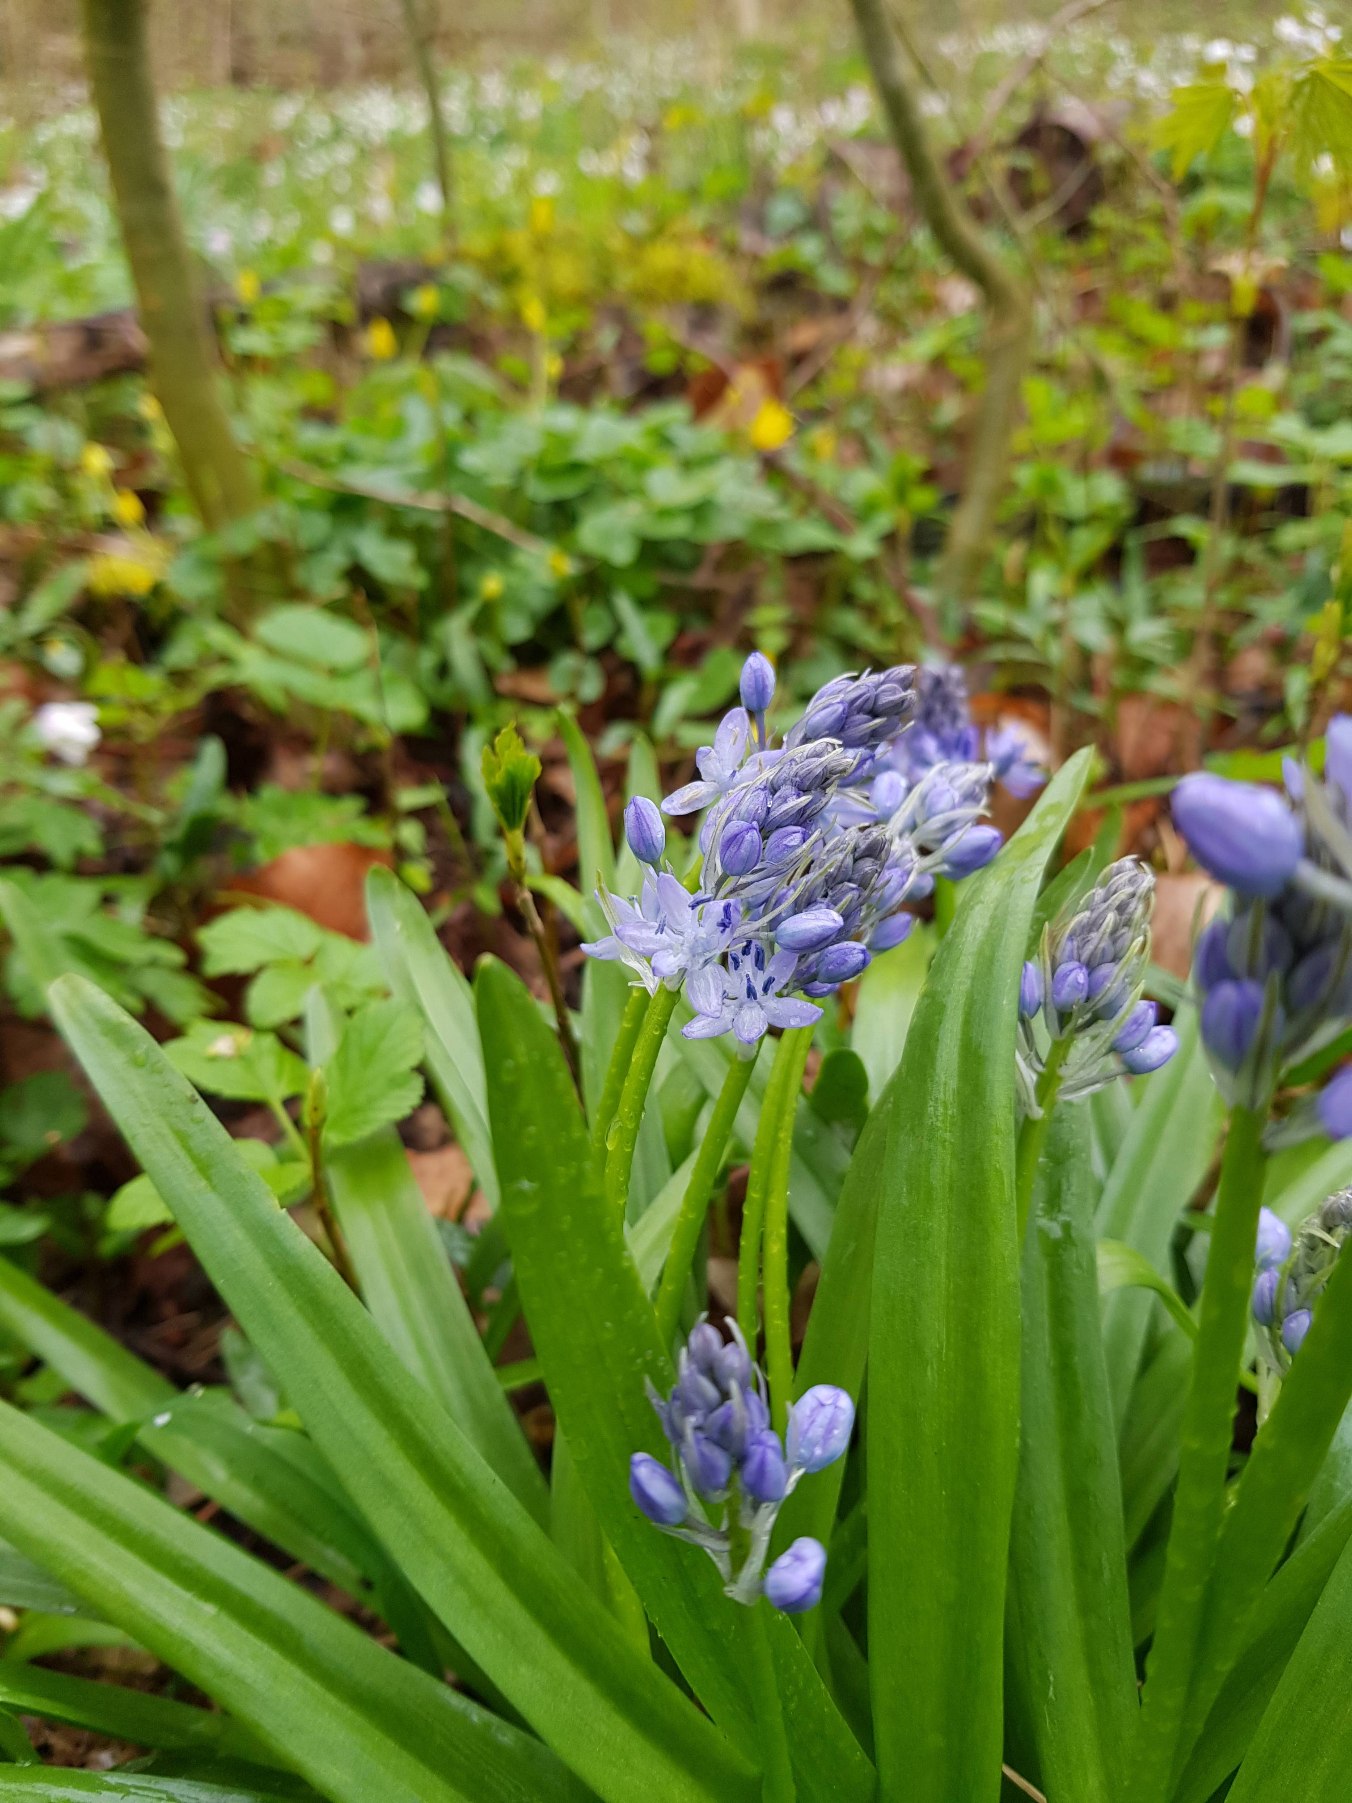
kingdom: Plantae
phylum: Tracheophyta
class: Liliopsida
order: Asparagales
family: Asparagaceae
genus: Hyacinthoides
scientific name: Hyacinthoides italica
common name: Italiensk skilla
